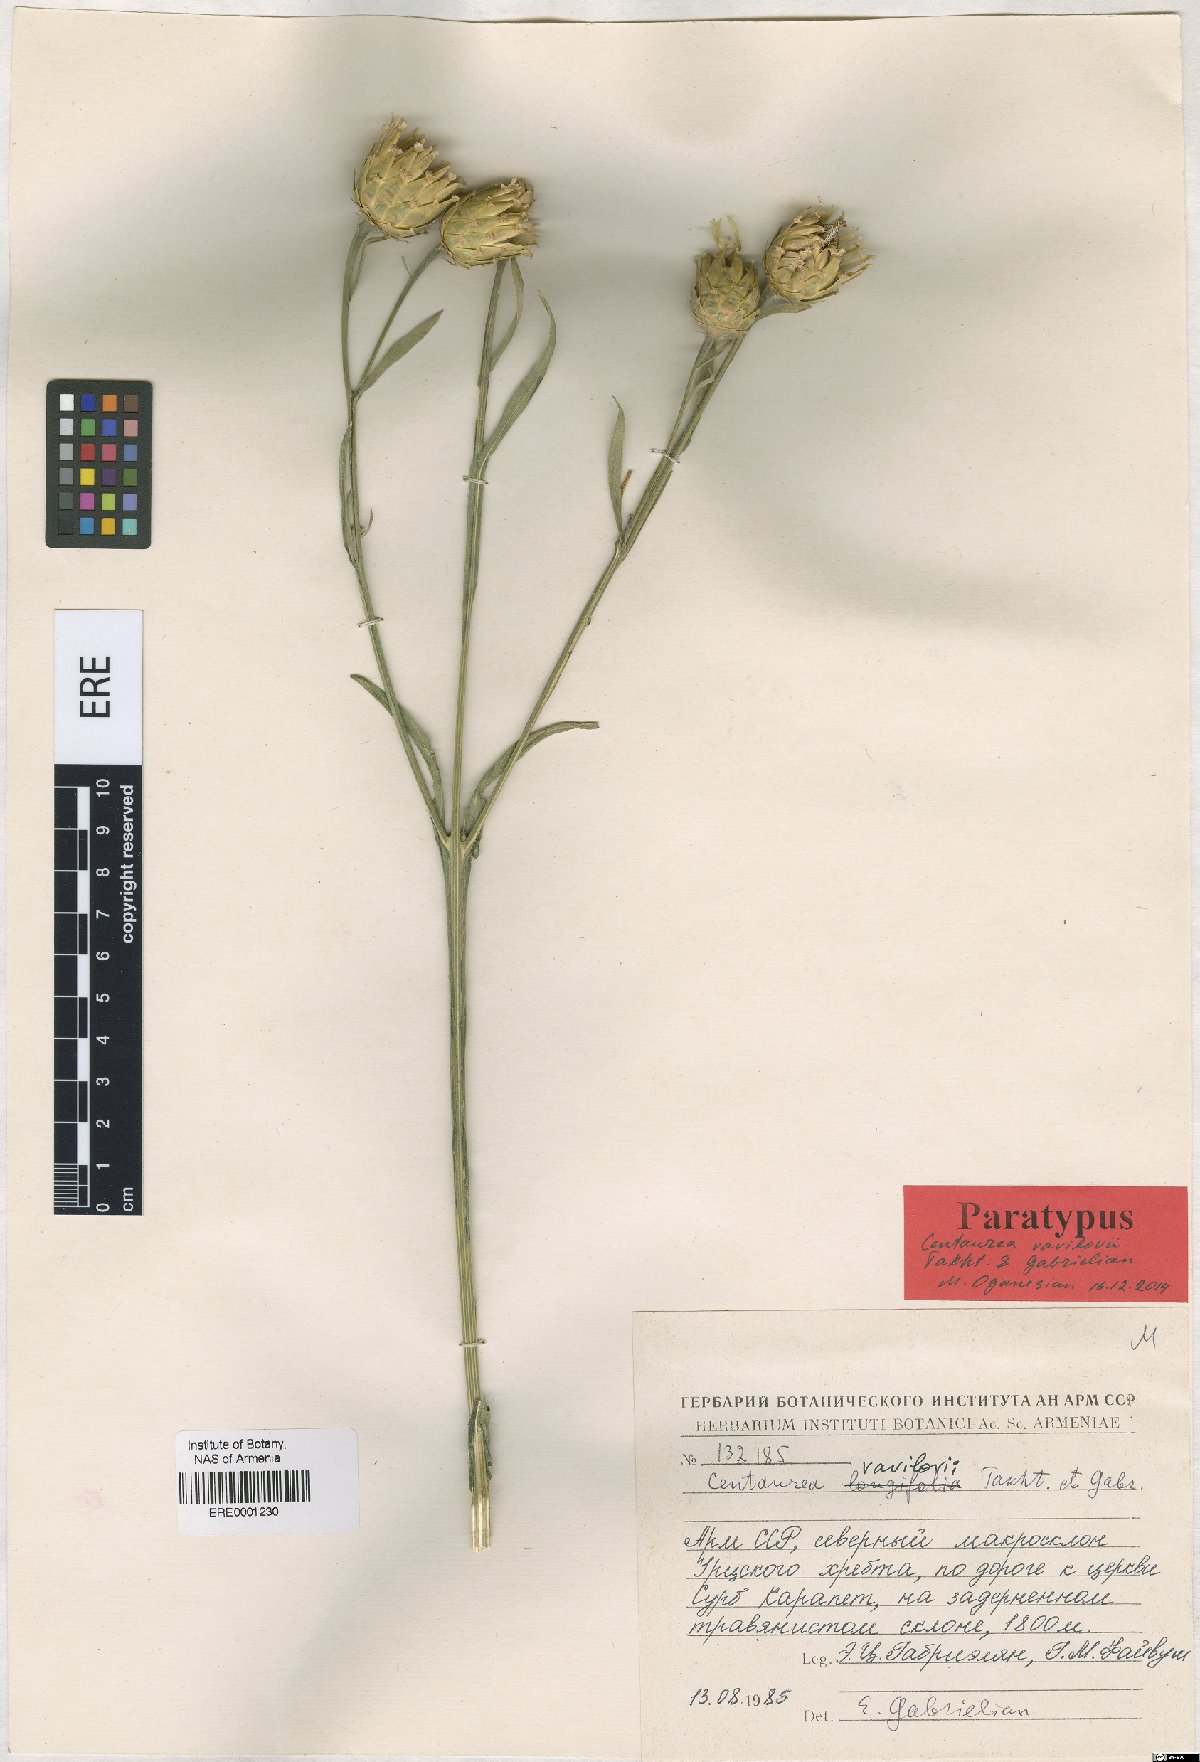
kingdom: Plantae
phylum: Tracheophyta
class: Magnoliopsida
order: Asterales
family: Asteraceae
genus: Centaurea
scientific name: Centaurea vavilovii
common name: Vavilov's centaury
